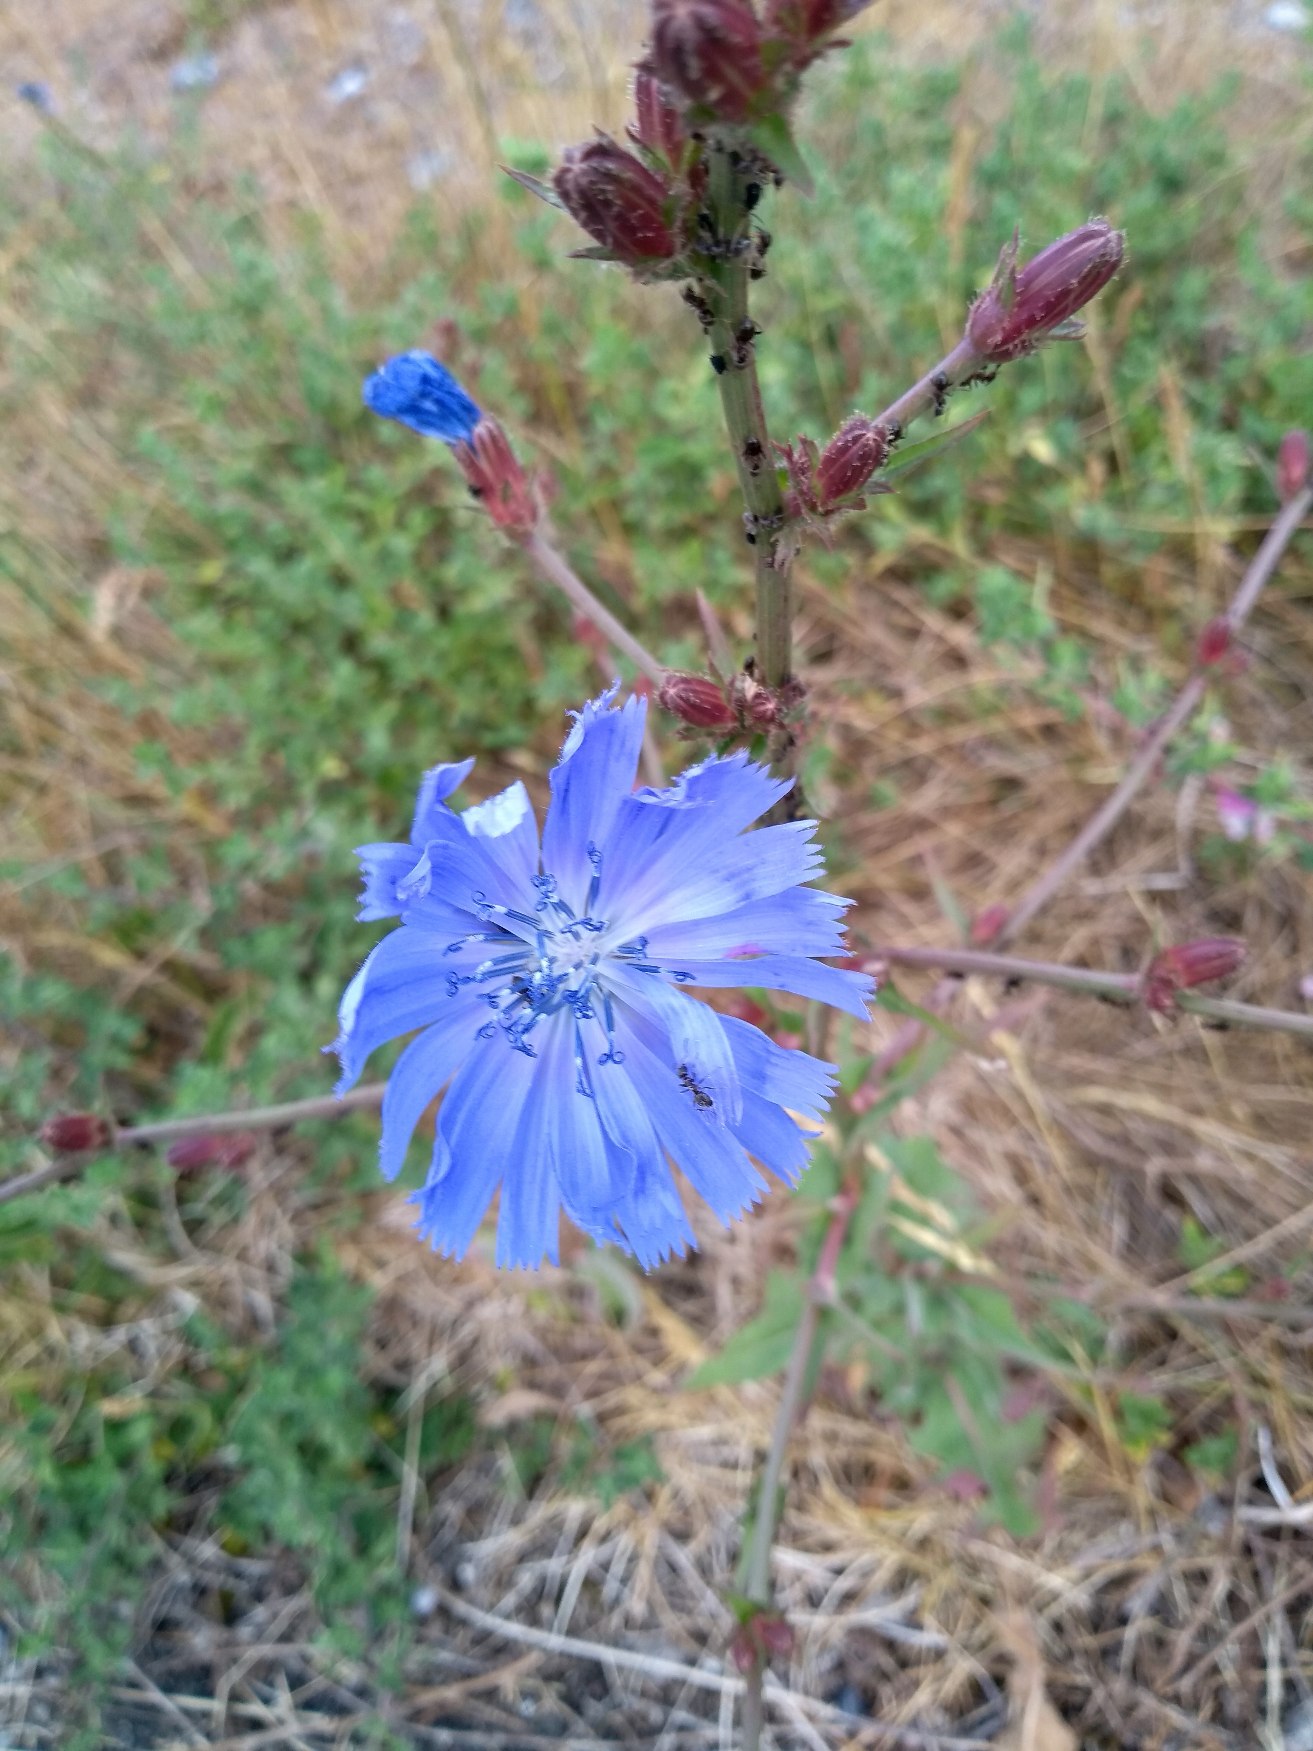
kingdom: Plantae
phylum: Tracheophyta
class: Magnoliopsida
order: Asterales
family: Asteraceae
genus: Cichorium
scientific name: Cichorium intybus
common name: Cikorie
